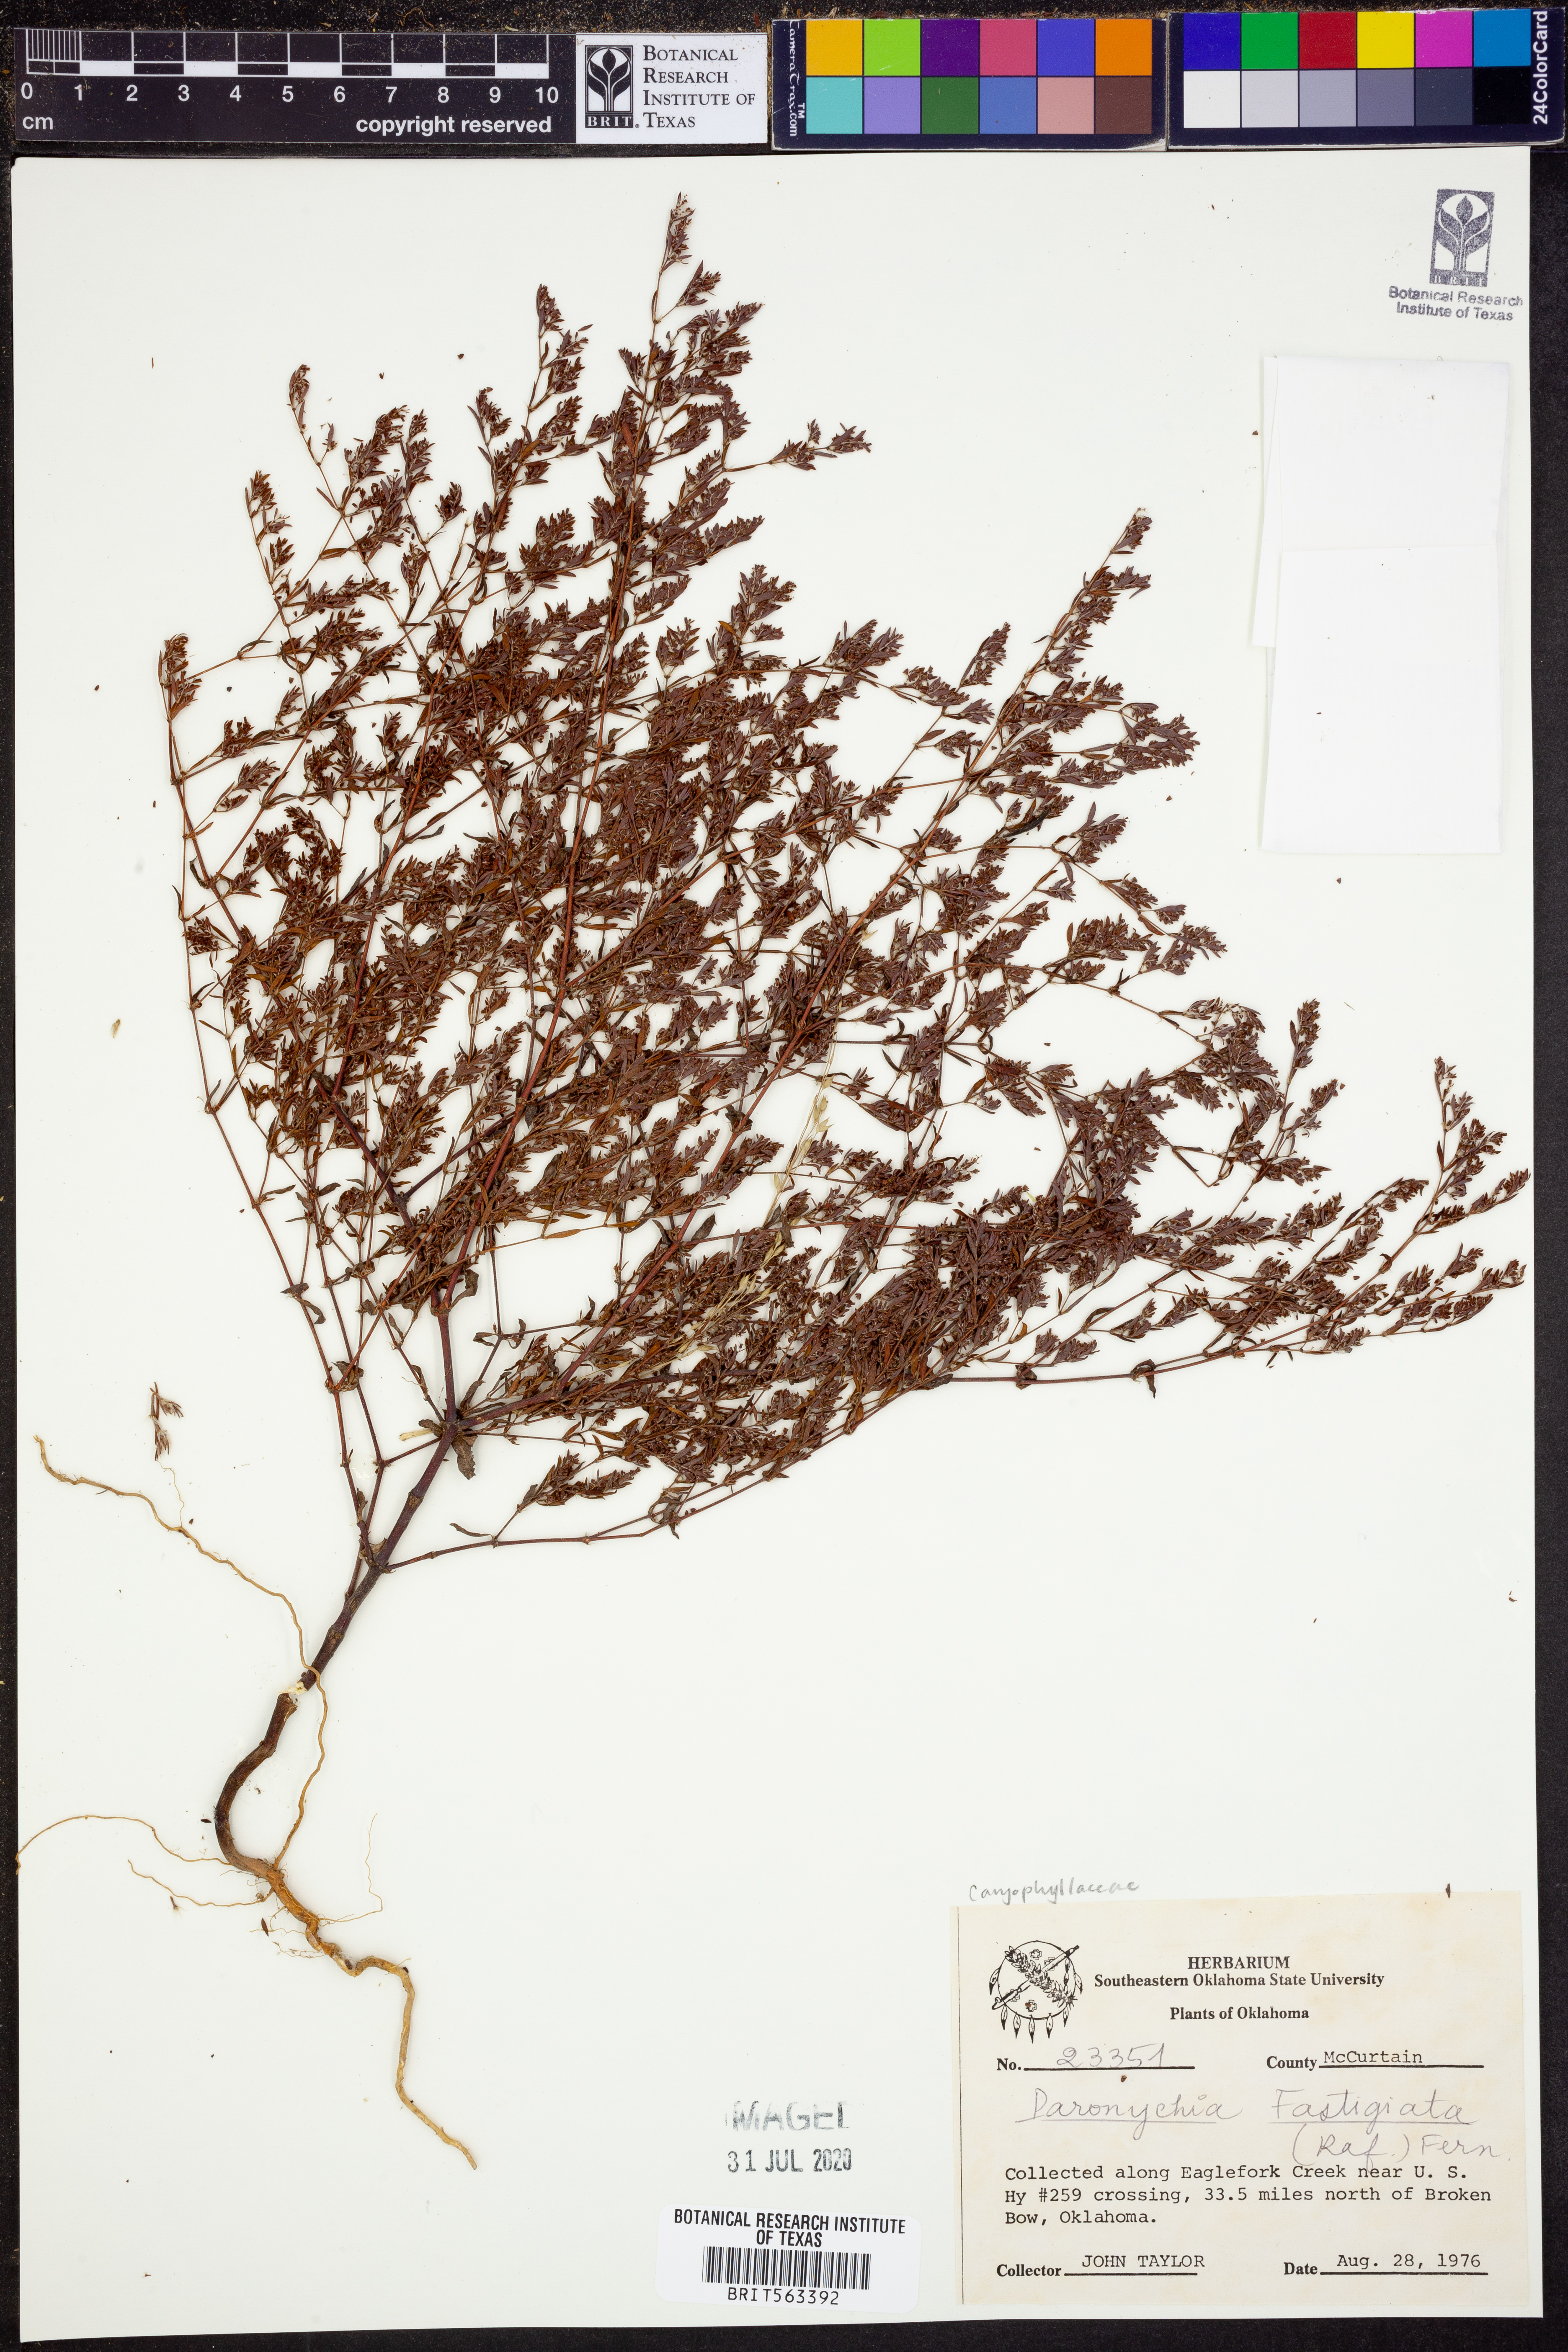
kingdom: Plantae
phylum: Tracheophyta
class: Magnoliopsida
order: Caryophyllales
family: Caryophyllaceae
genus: Paronychia
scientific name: Paronychia fastigiata
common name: Branching forked whitlow-wort
